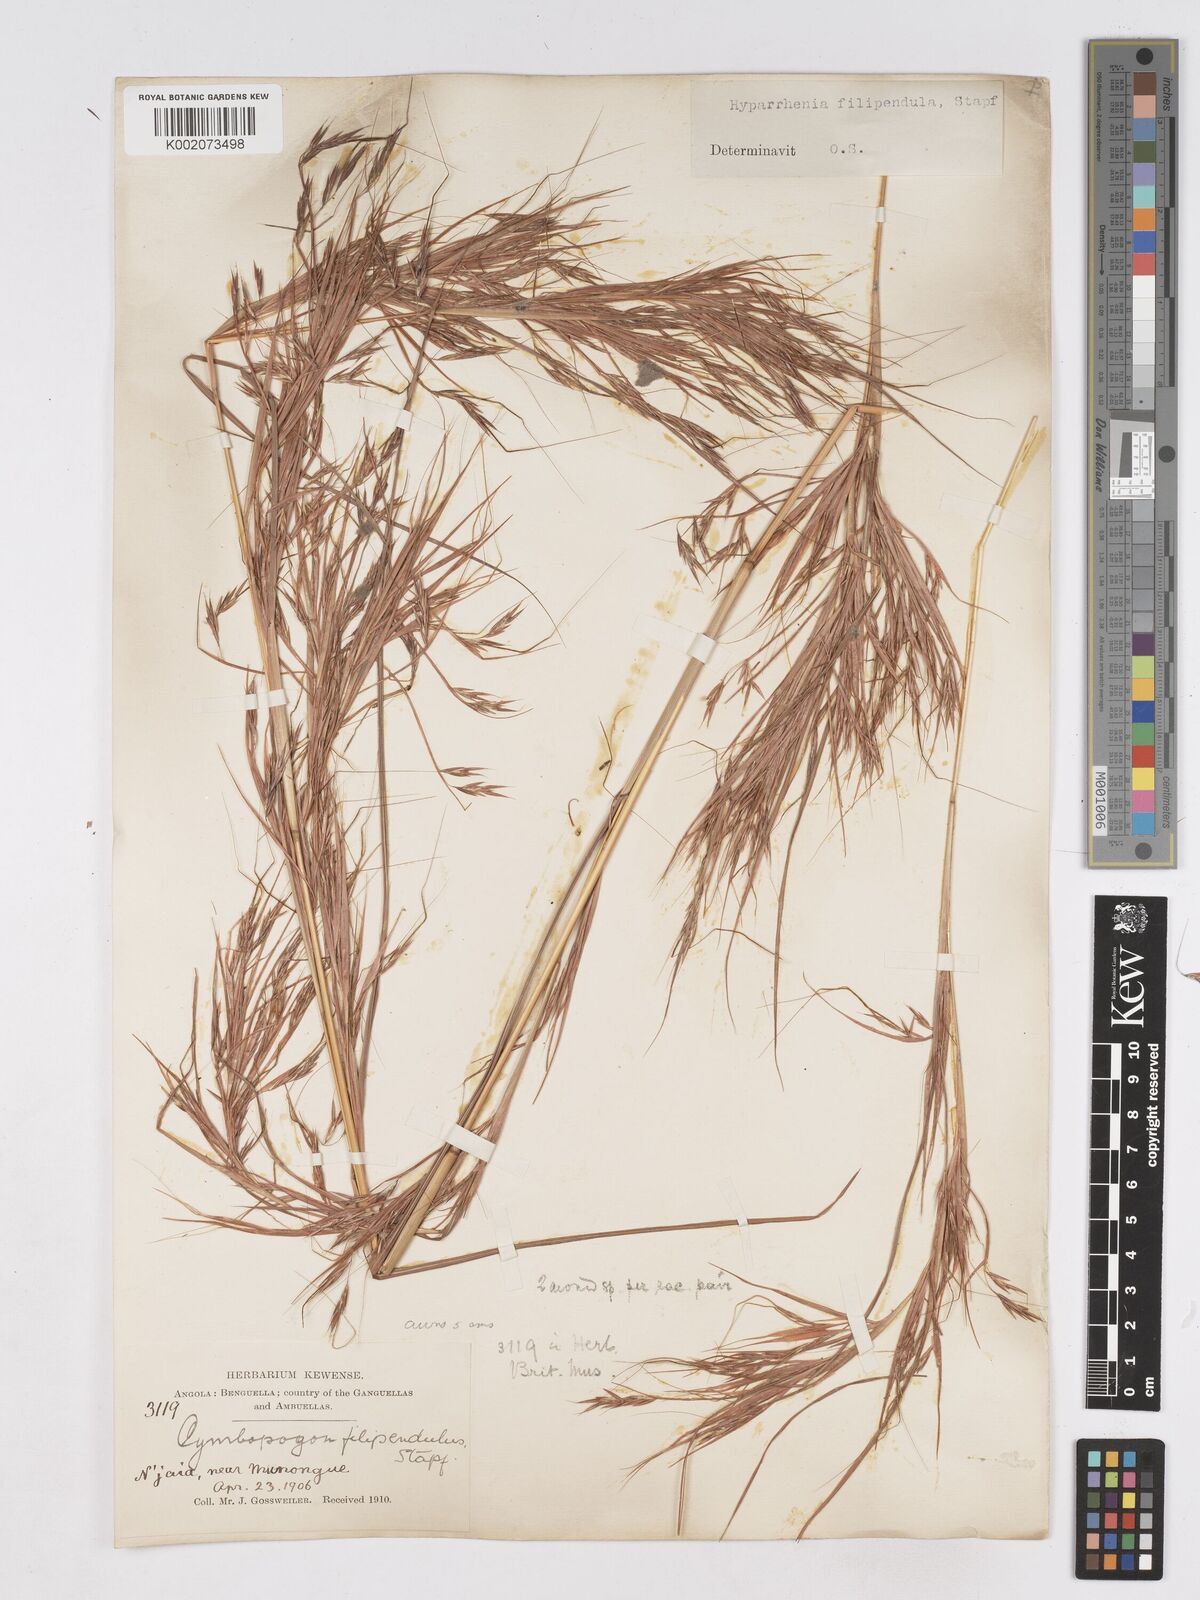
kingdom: Plantae
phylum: Tracheophyta
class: Liliopsida
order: Poales
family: Poaceae
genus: Hyparrhenia
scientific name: Hyparrhenia filipendula
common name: Tambookie grass
